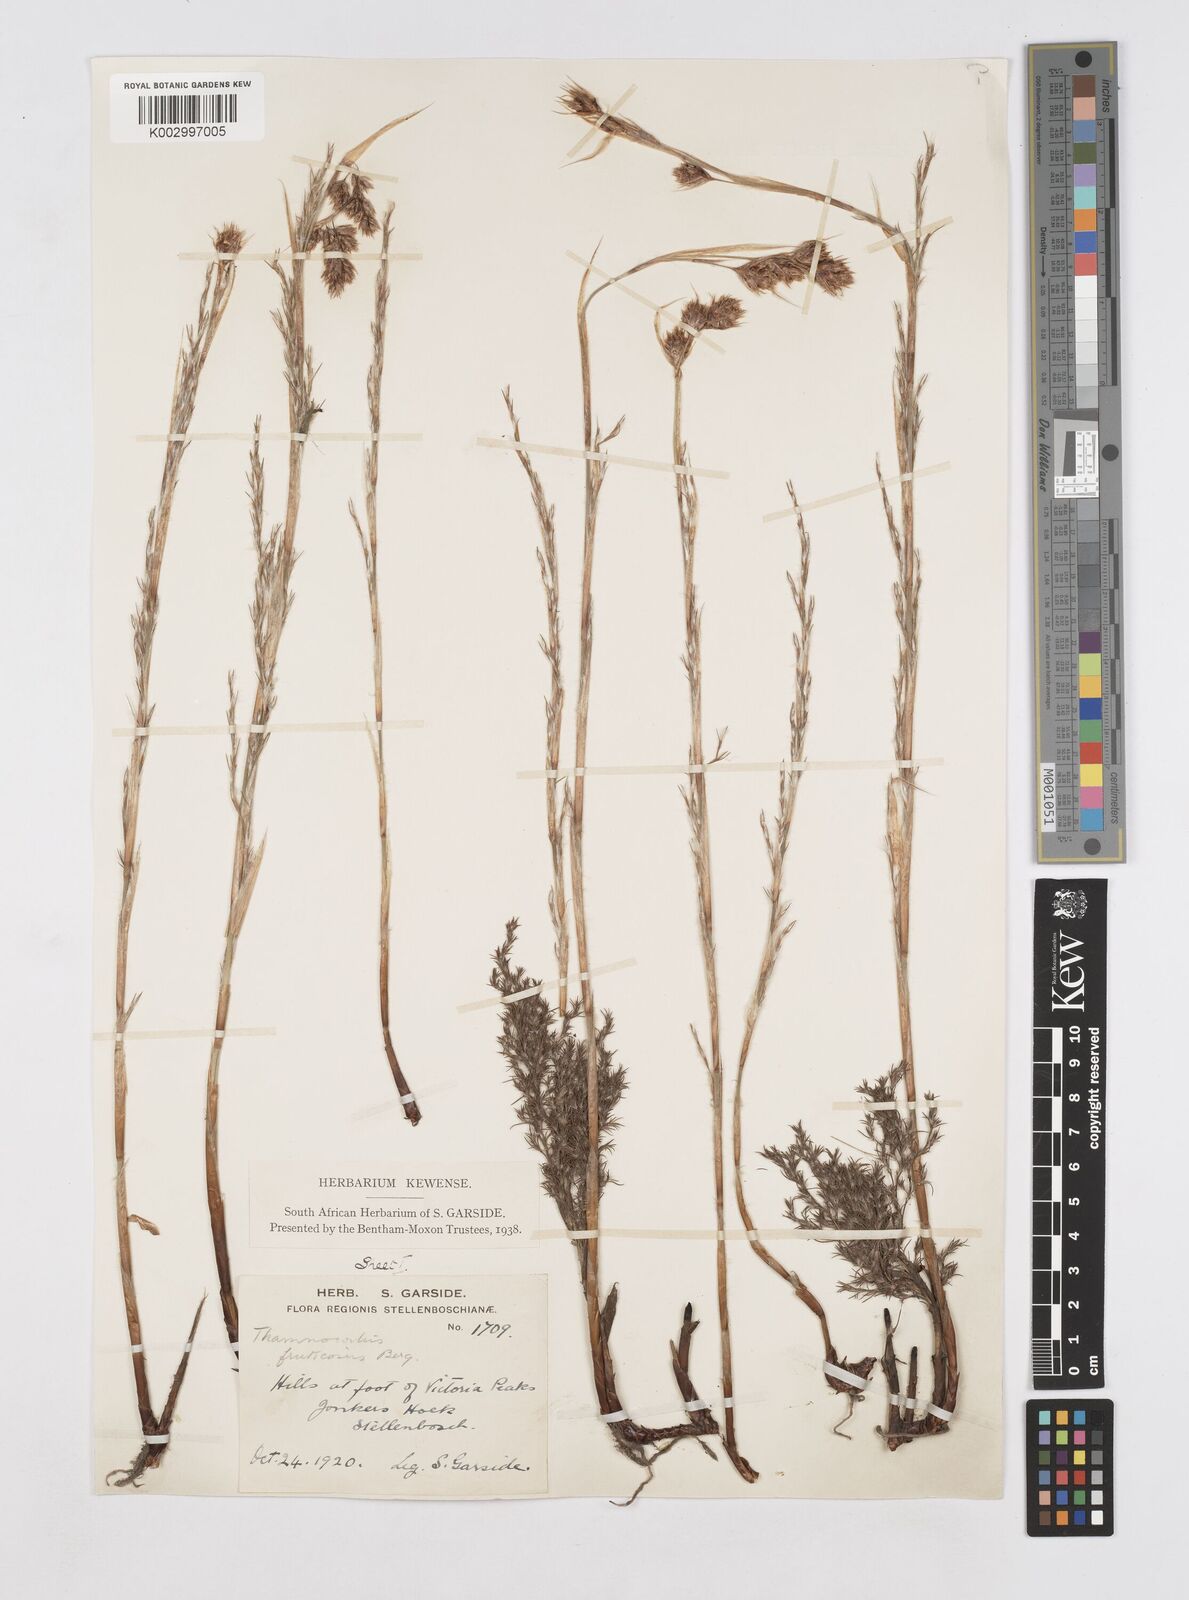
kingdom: Plantae
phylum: Tracheophyta
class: Liliopsida
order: Poales
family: Restionaceae
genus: Thamnochortus
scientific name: Thamnochortus fruticosus
